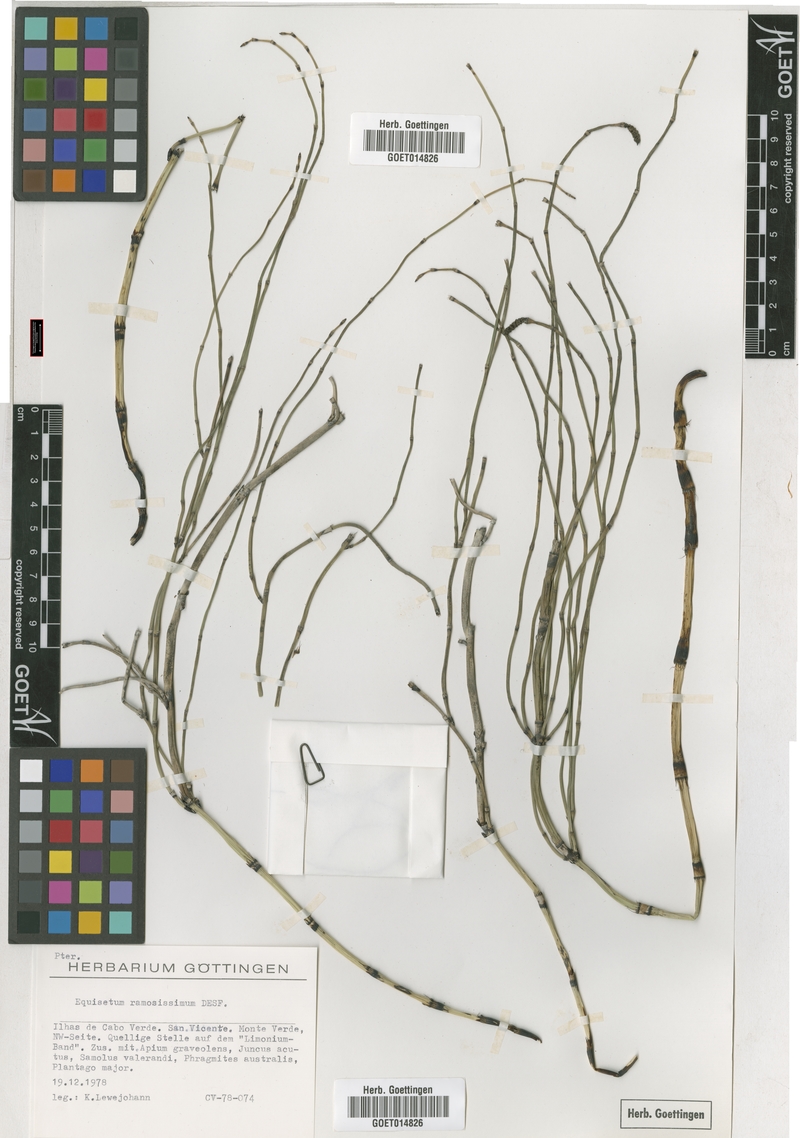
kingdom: Plantae
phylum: Tracheophyta
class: Polypodiopsida
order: Equisetales
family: Equisetaceae
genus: Equisetum
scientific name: Equisetum ramosissimum
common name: Branched horsetail
